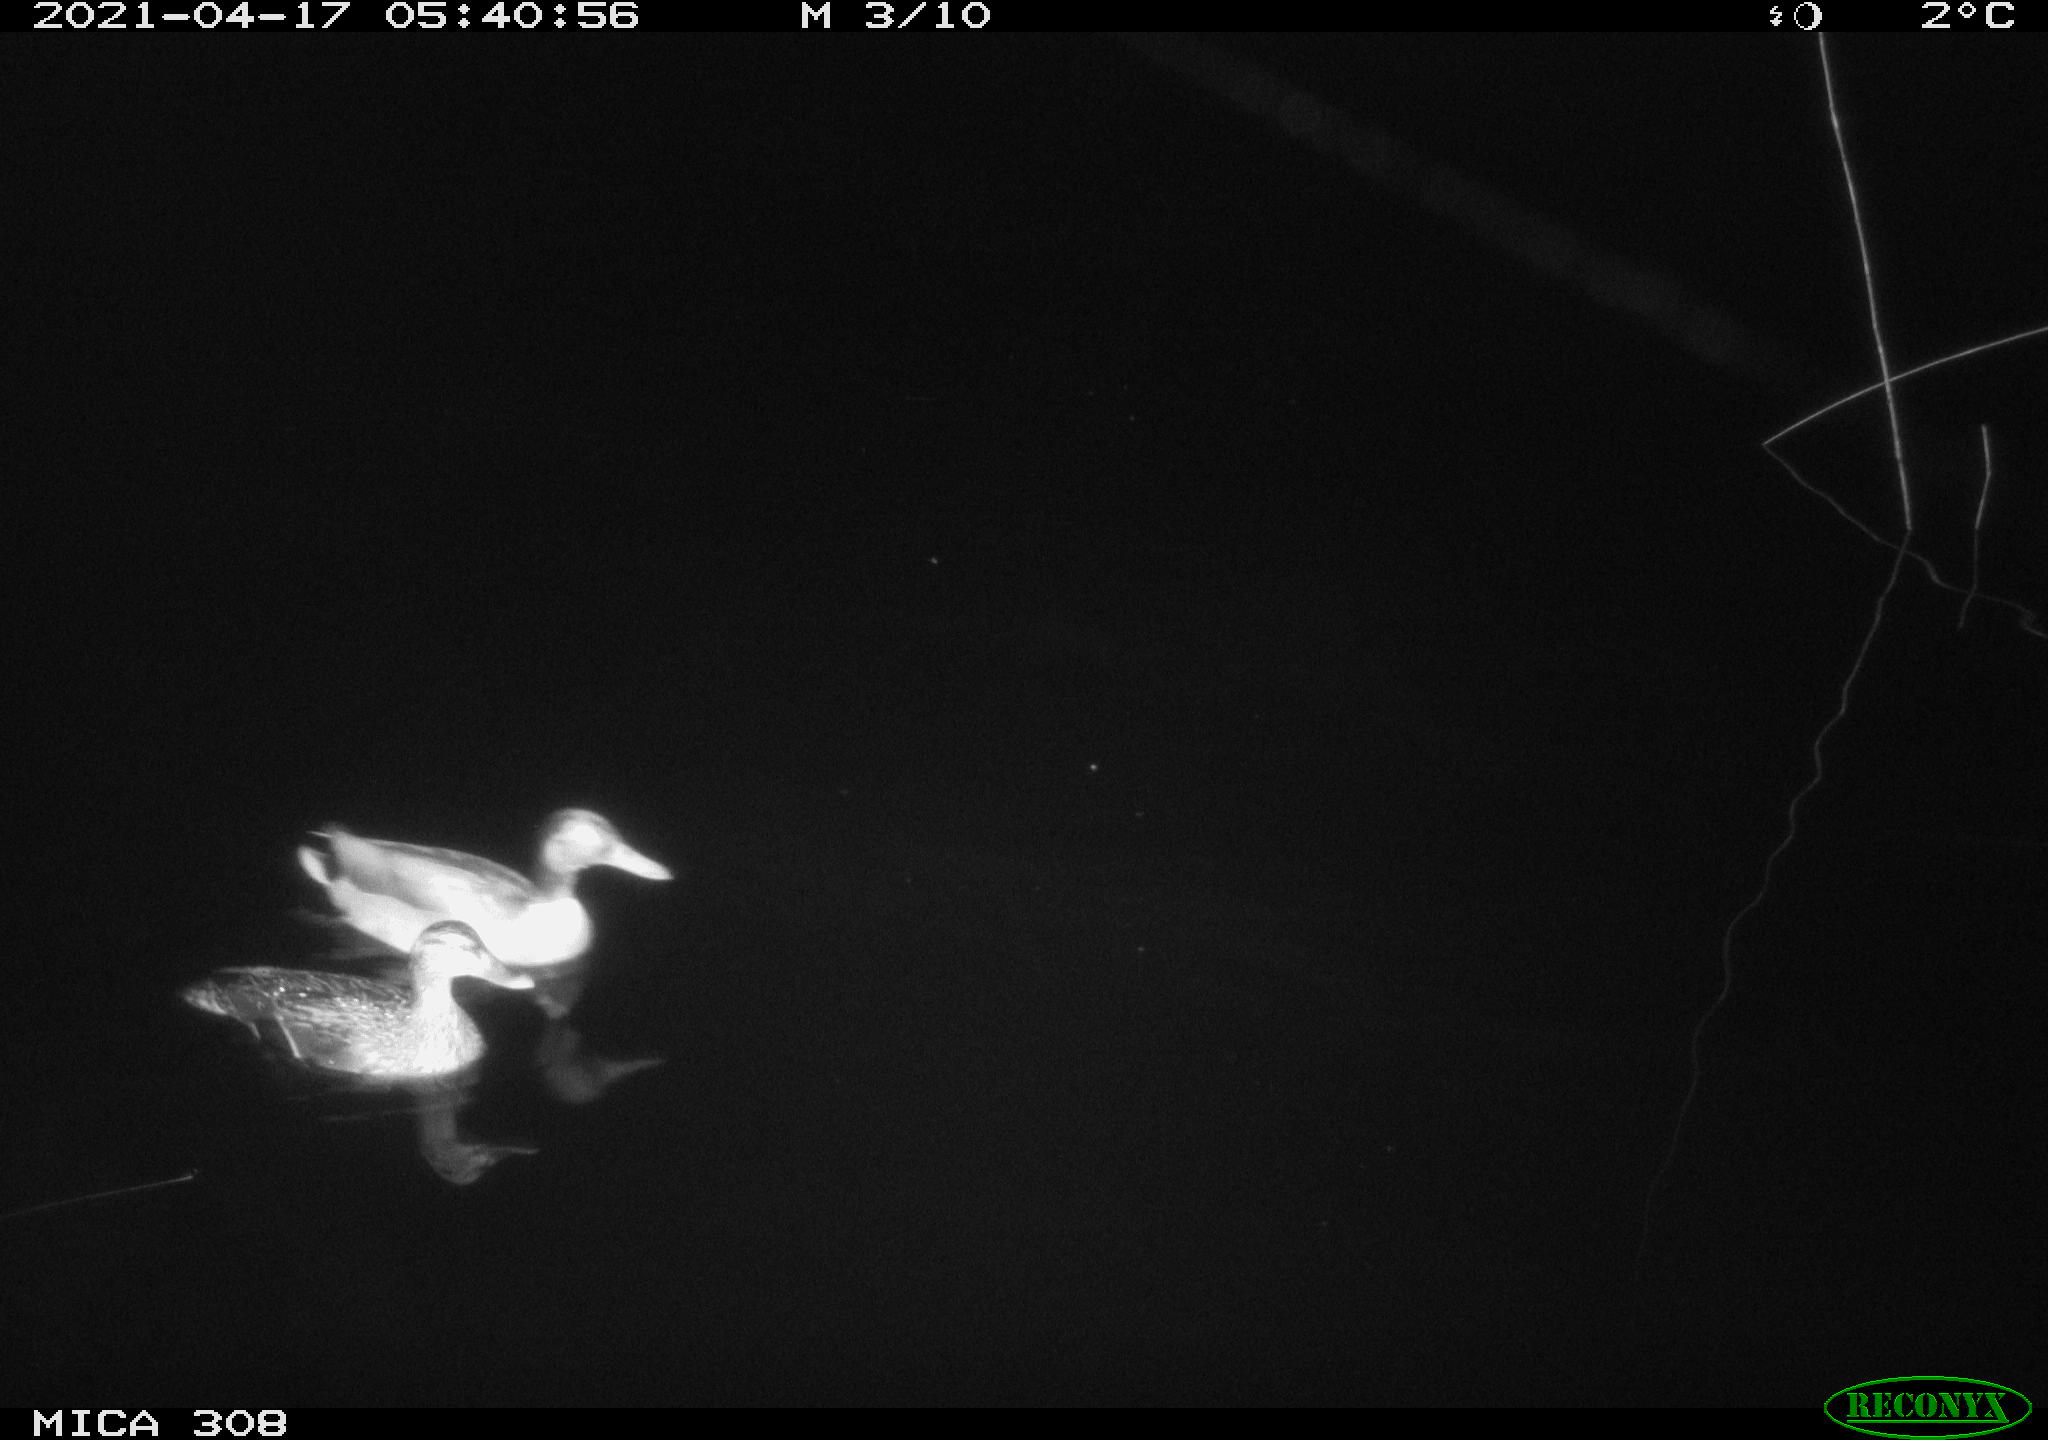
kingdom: Animalia
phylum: Chordata
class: Aves
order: Anseriformes
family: Anatidae
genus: Anas
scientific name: Anas platyrhynchos
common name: Mallard
